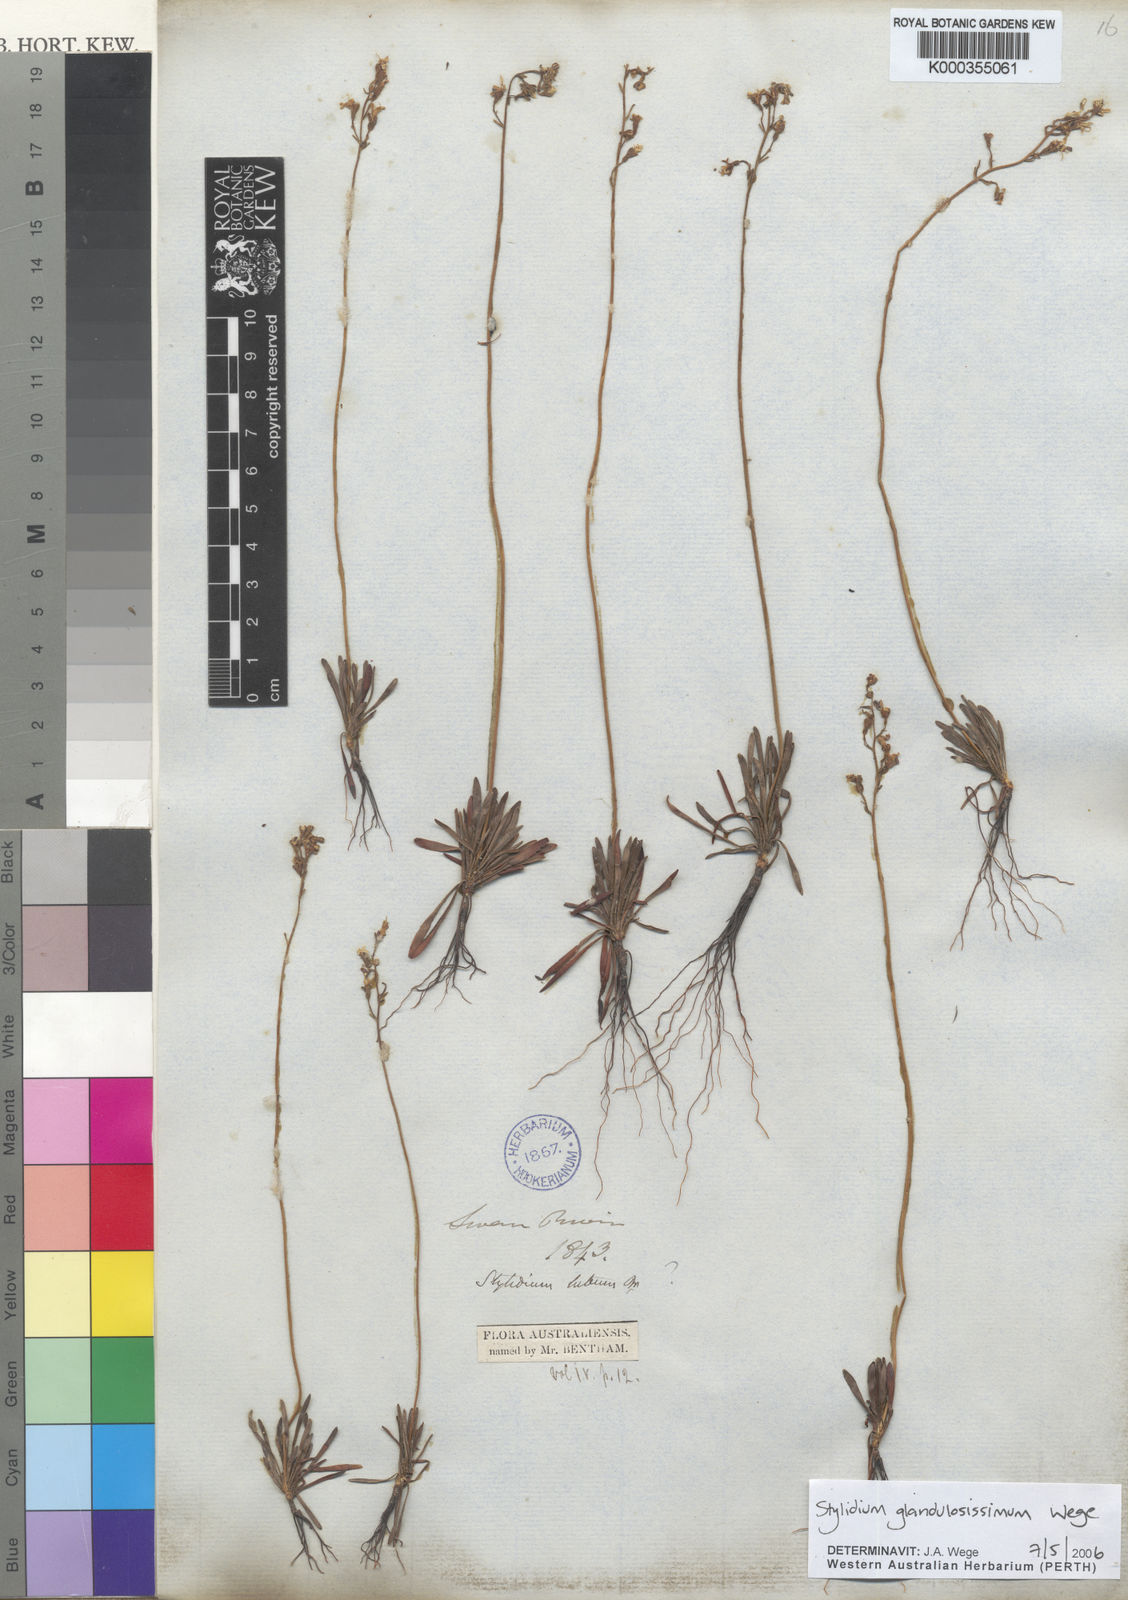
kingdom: Plantae
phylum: Tracheophyta
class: Magnoliopsida
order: Asterales
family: Stylidiaceae
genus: Stylidium
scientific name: Stylidium glandulosissimum
